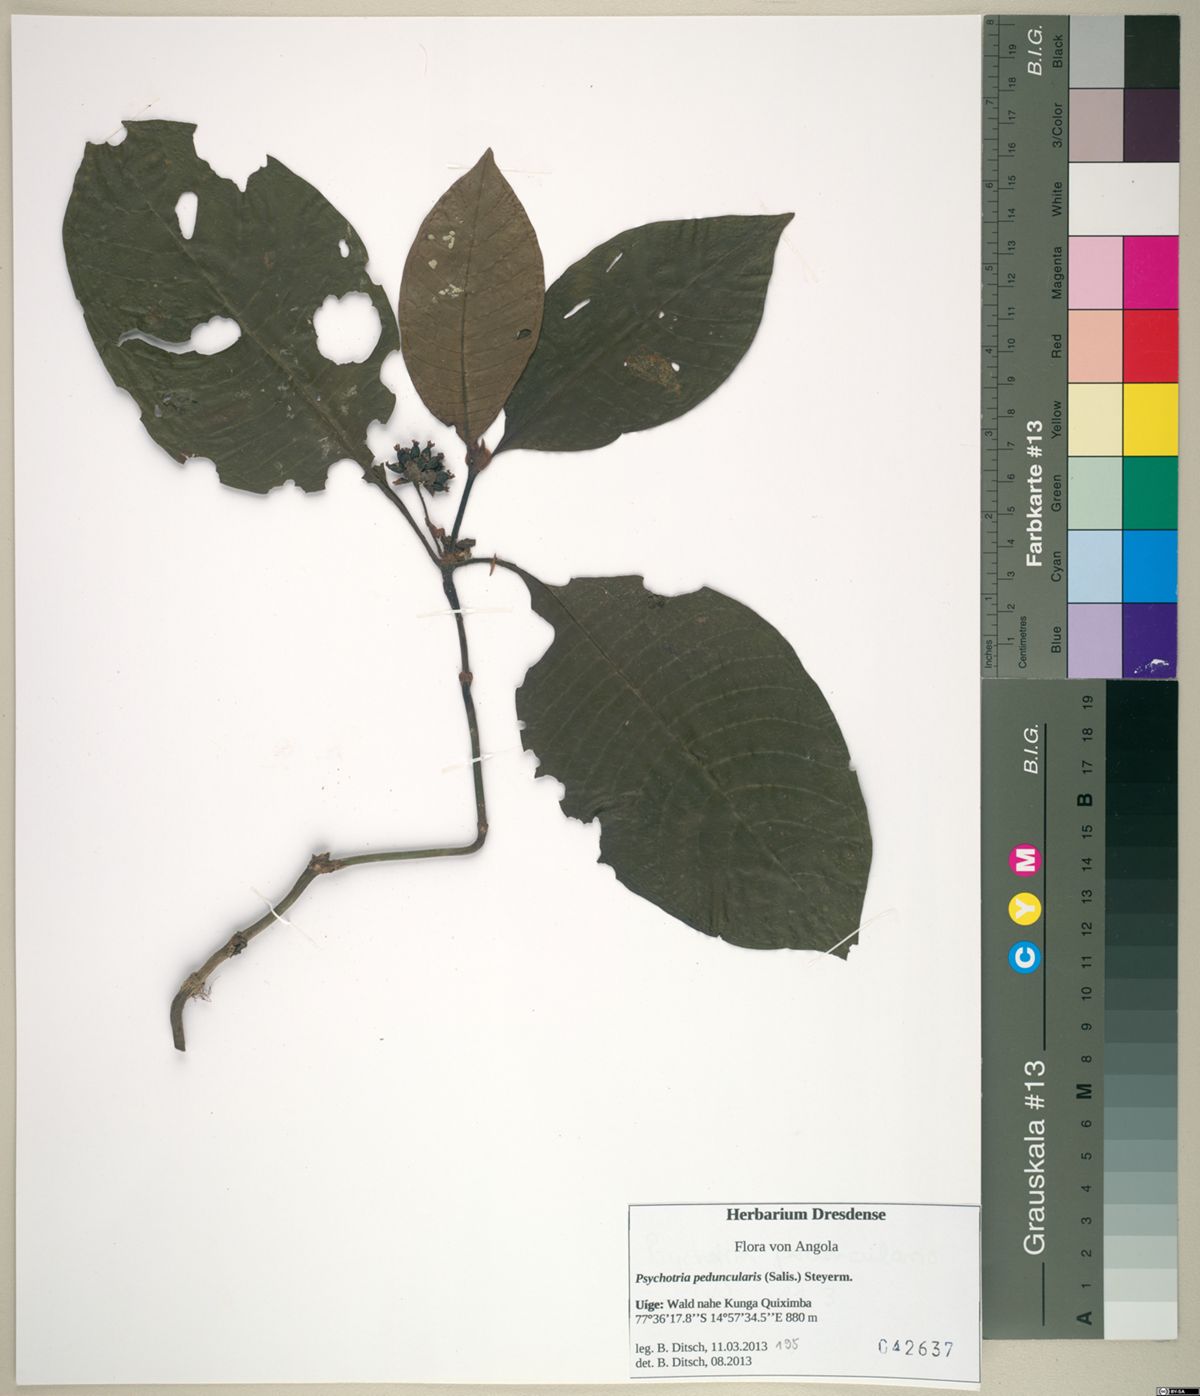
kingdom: Plantae
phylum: Tracheophyta
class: Magnoliopsida
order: Gentianales
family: Rubiaceae
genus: Psychotria
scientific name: Psychotria peduncularis
